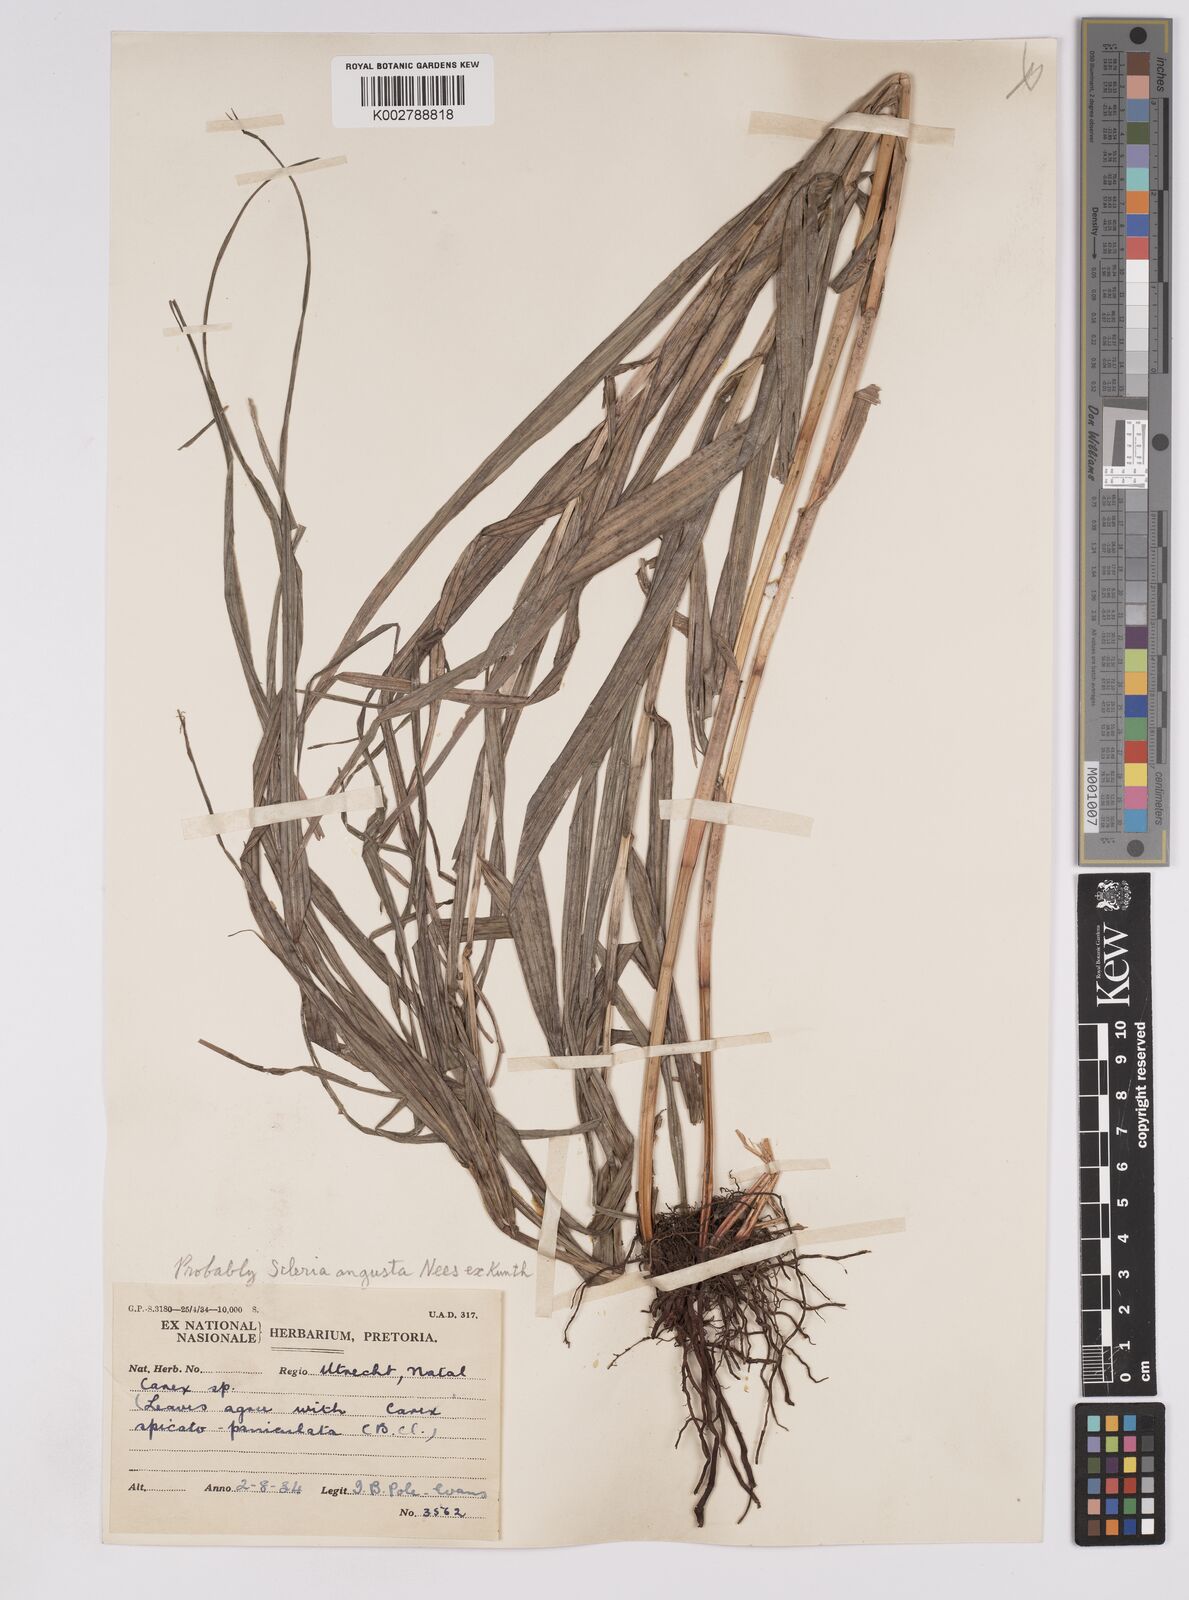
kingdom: Plantae
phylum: Tracheophyta
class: Liliopsida
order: Poales
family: Cyperaceae
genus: Scleria
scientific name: Scleria angusta
